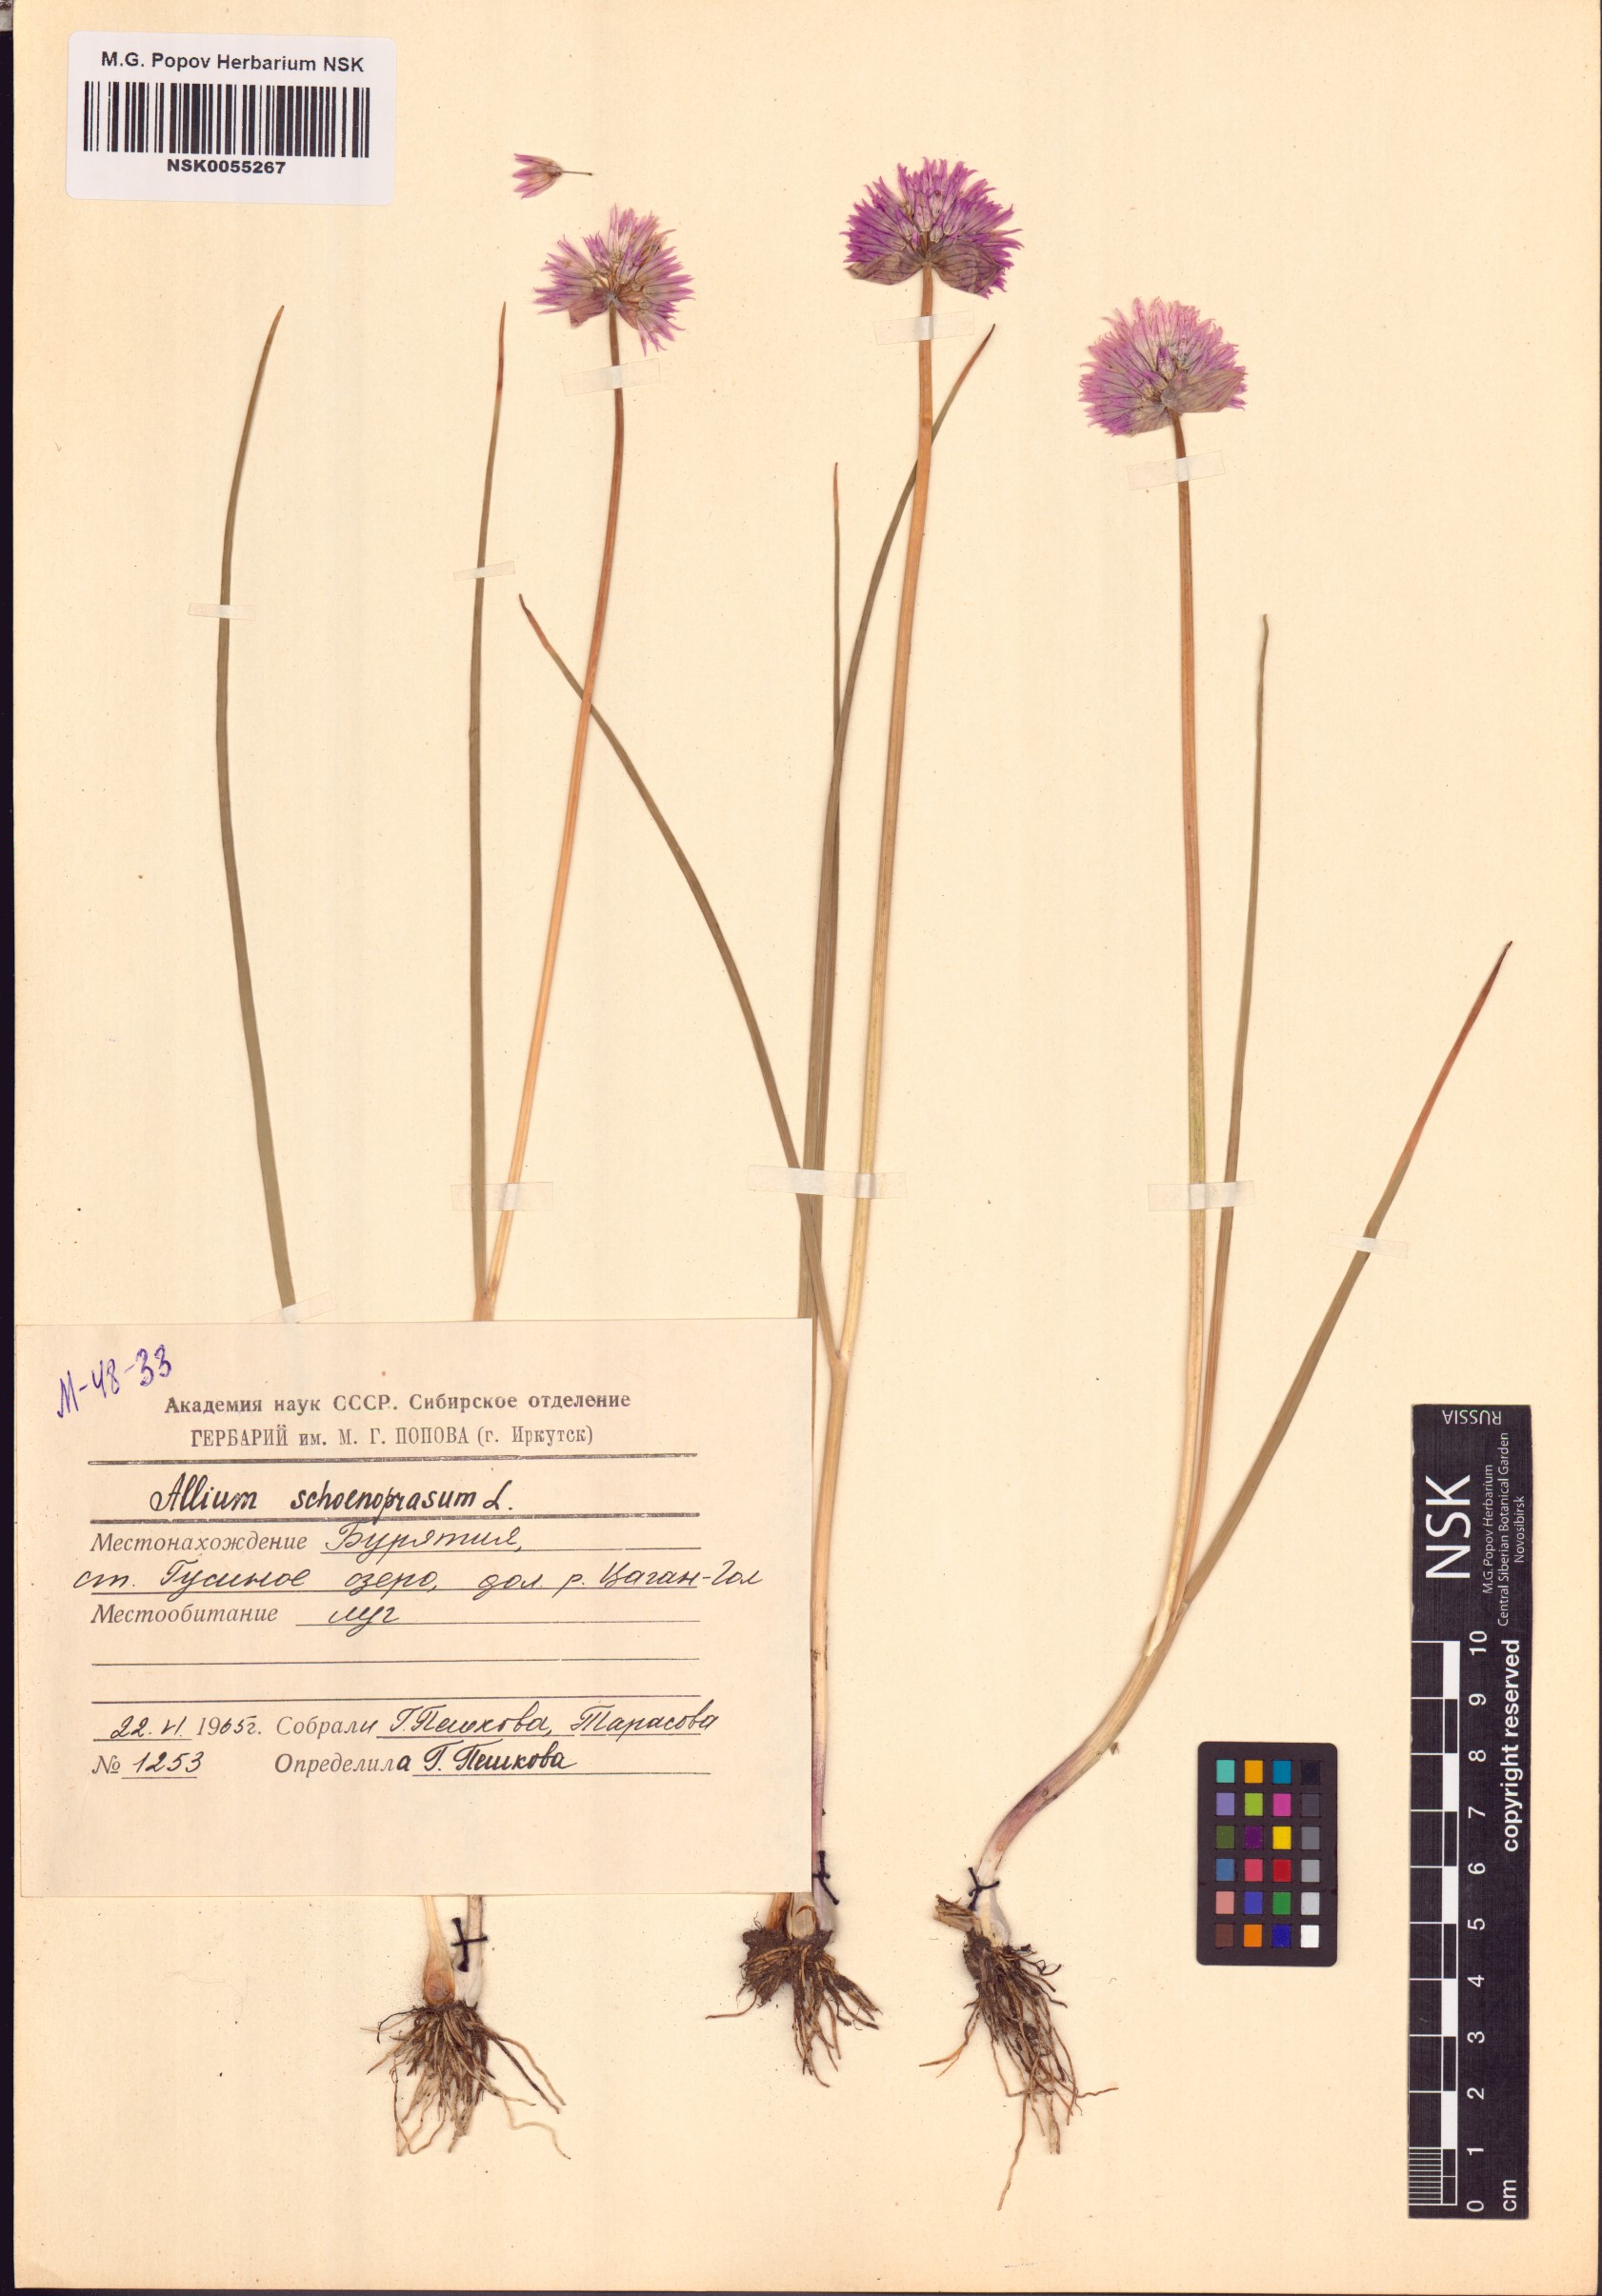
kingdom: Plantae
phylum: Tracheophyta
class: Liliopsida
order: Asparagales
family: Amaryllidaceae
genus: Allium
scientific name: Allium schoenoprasum
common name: Chives
